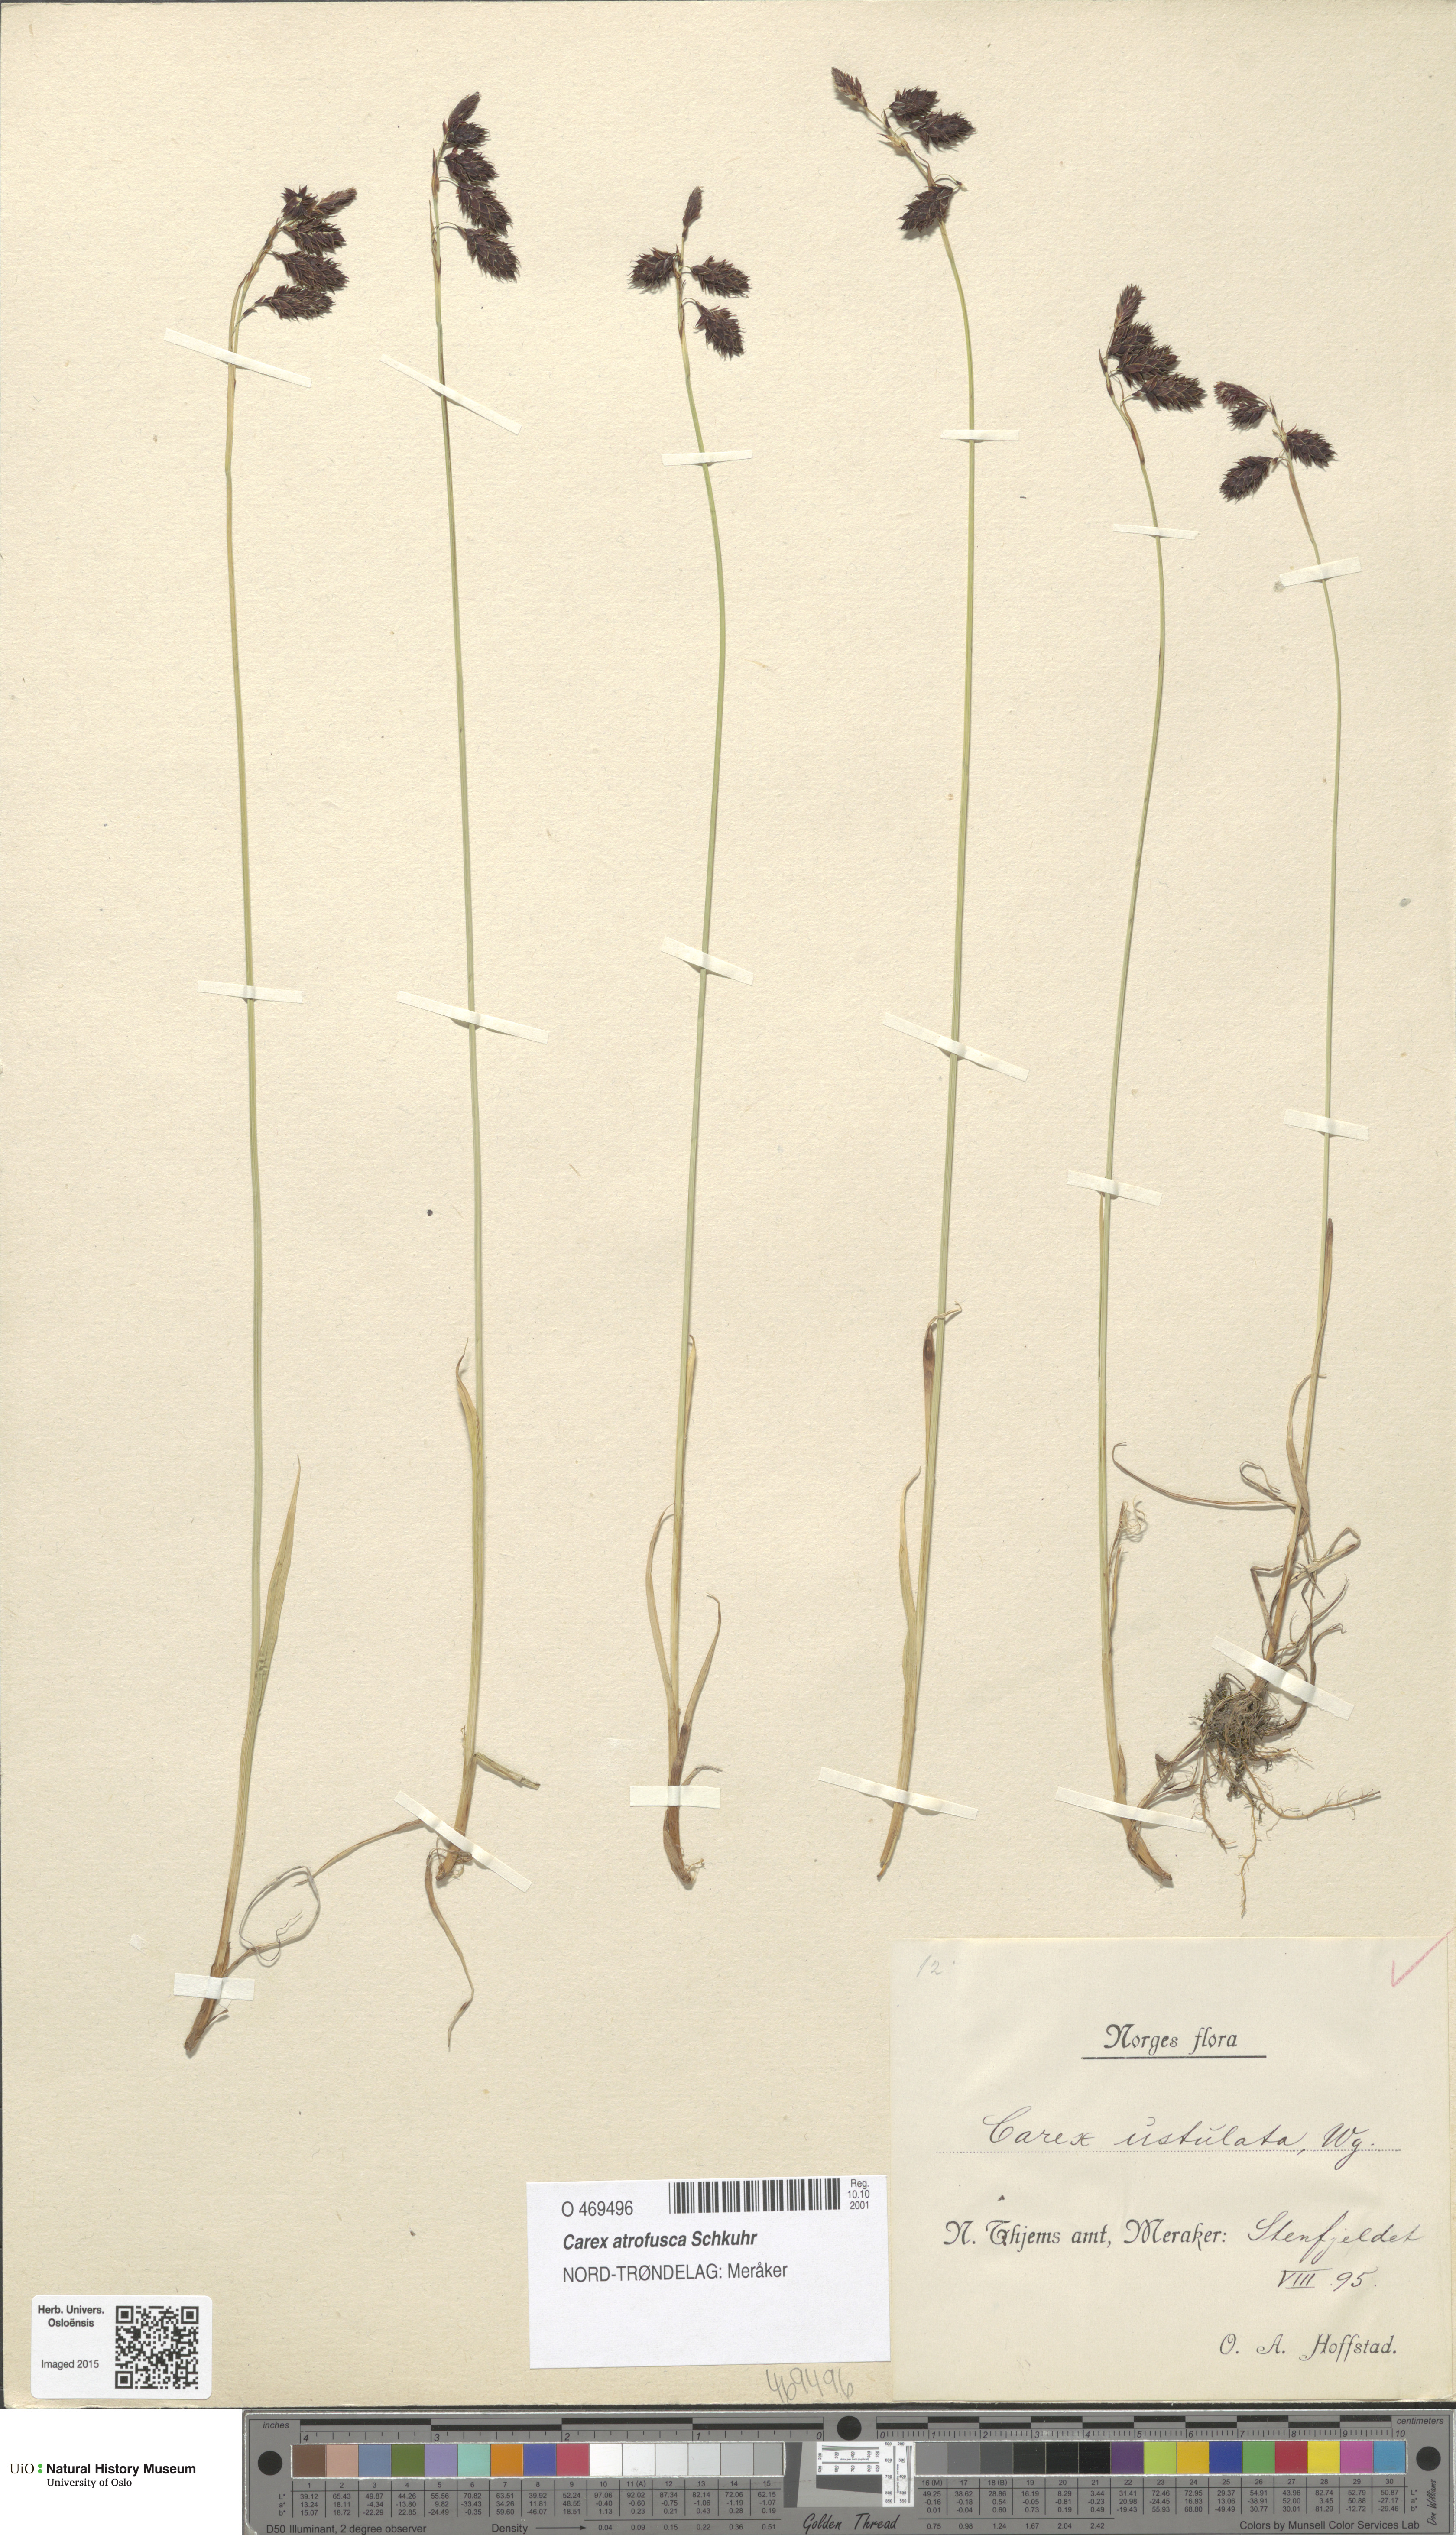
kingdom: Plantae
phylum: Tracheophyta
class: Liliopsida
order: Poales
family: Cyperaceae
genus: Carex
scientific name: Carex atrofusca
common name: Scorched alpine-sedge
